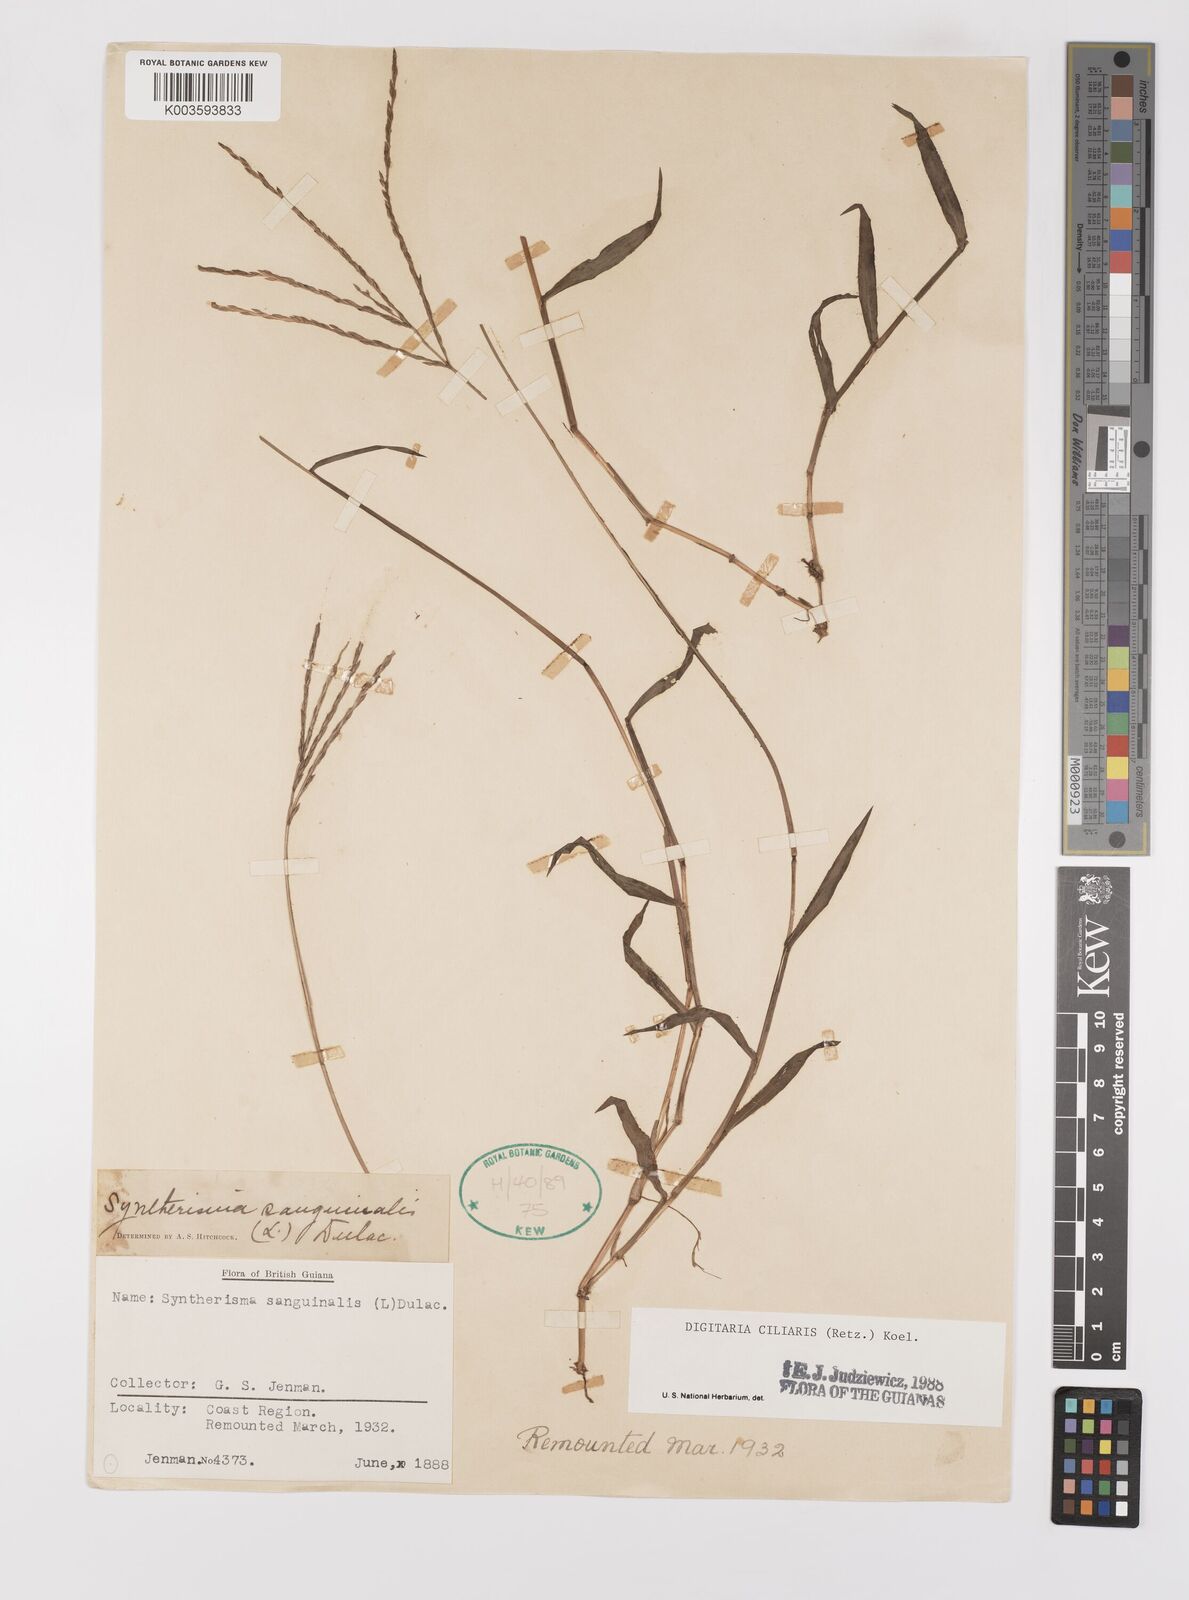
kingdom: Plantae
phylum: Tracheophyta
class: Liliopsida
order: Poales
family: Poaceae
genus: Digitaria
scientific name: Digitaria ciliaris
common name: Tropical finger-grass
